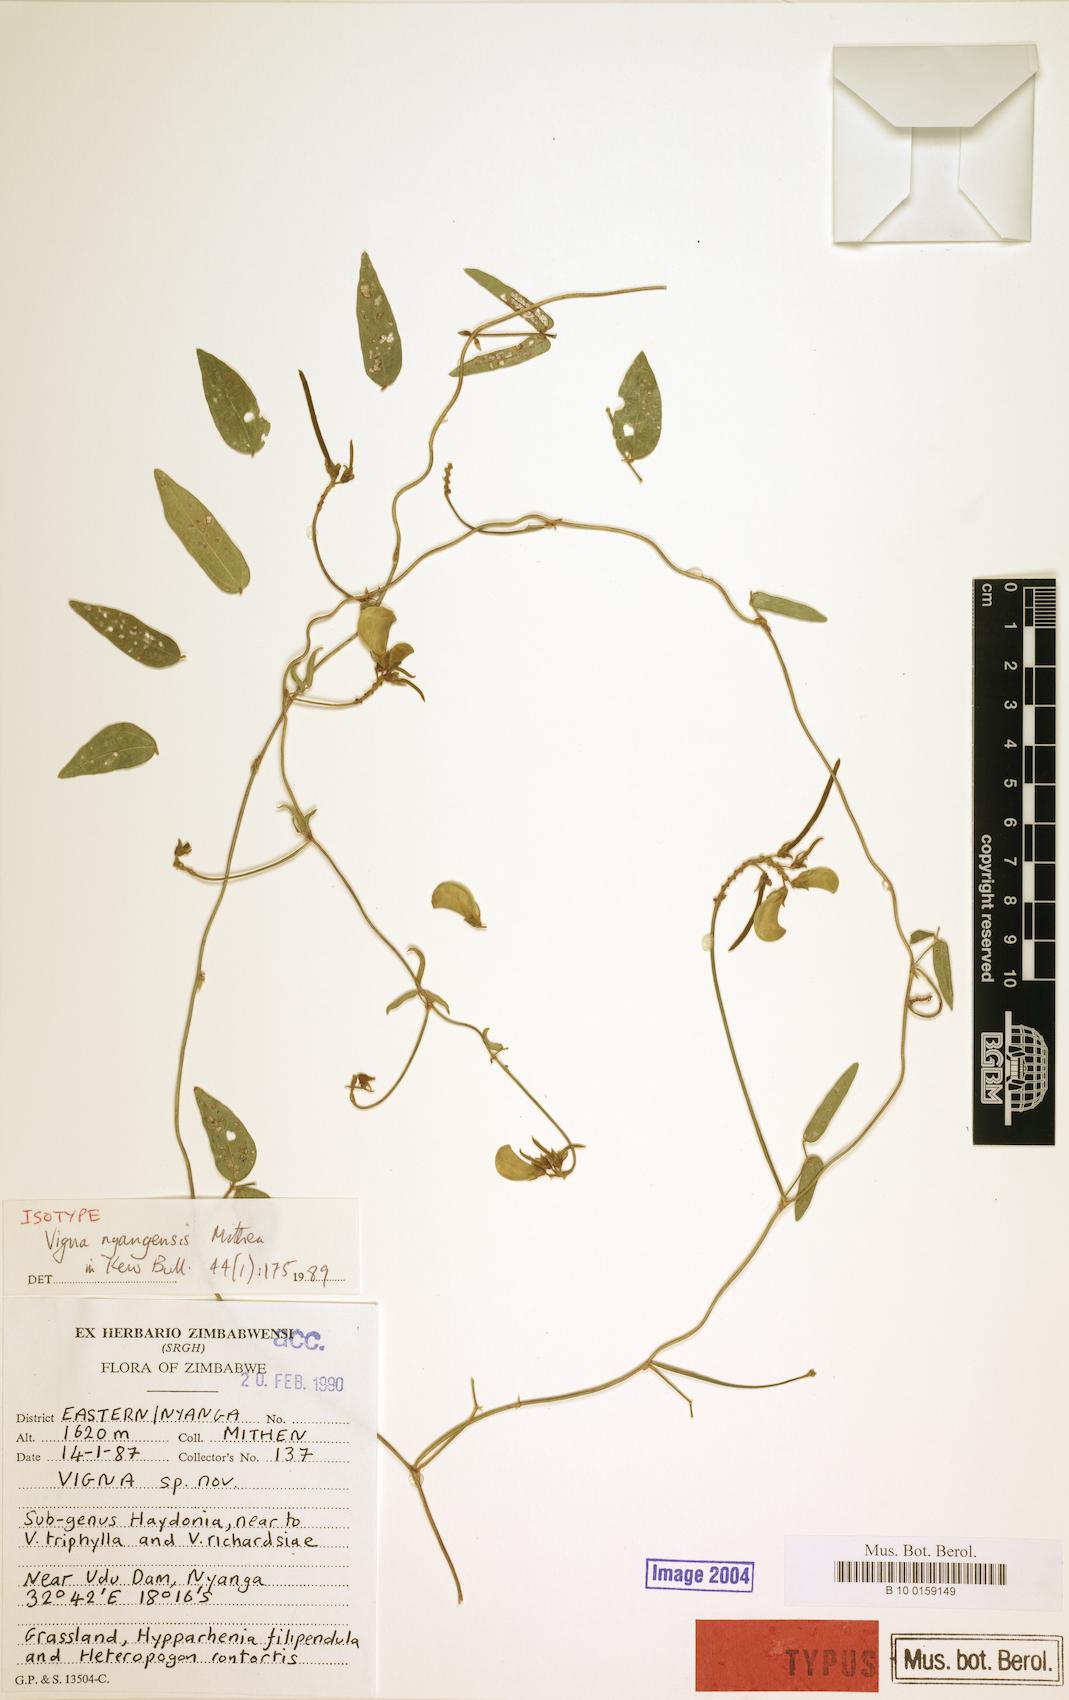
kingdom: Plantae
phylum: Tracheophyta
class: Magnoliopsida
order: Fabales
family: Fabaceae
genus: Vigna
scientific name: Vigna nyangensis
